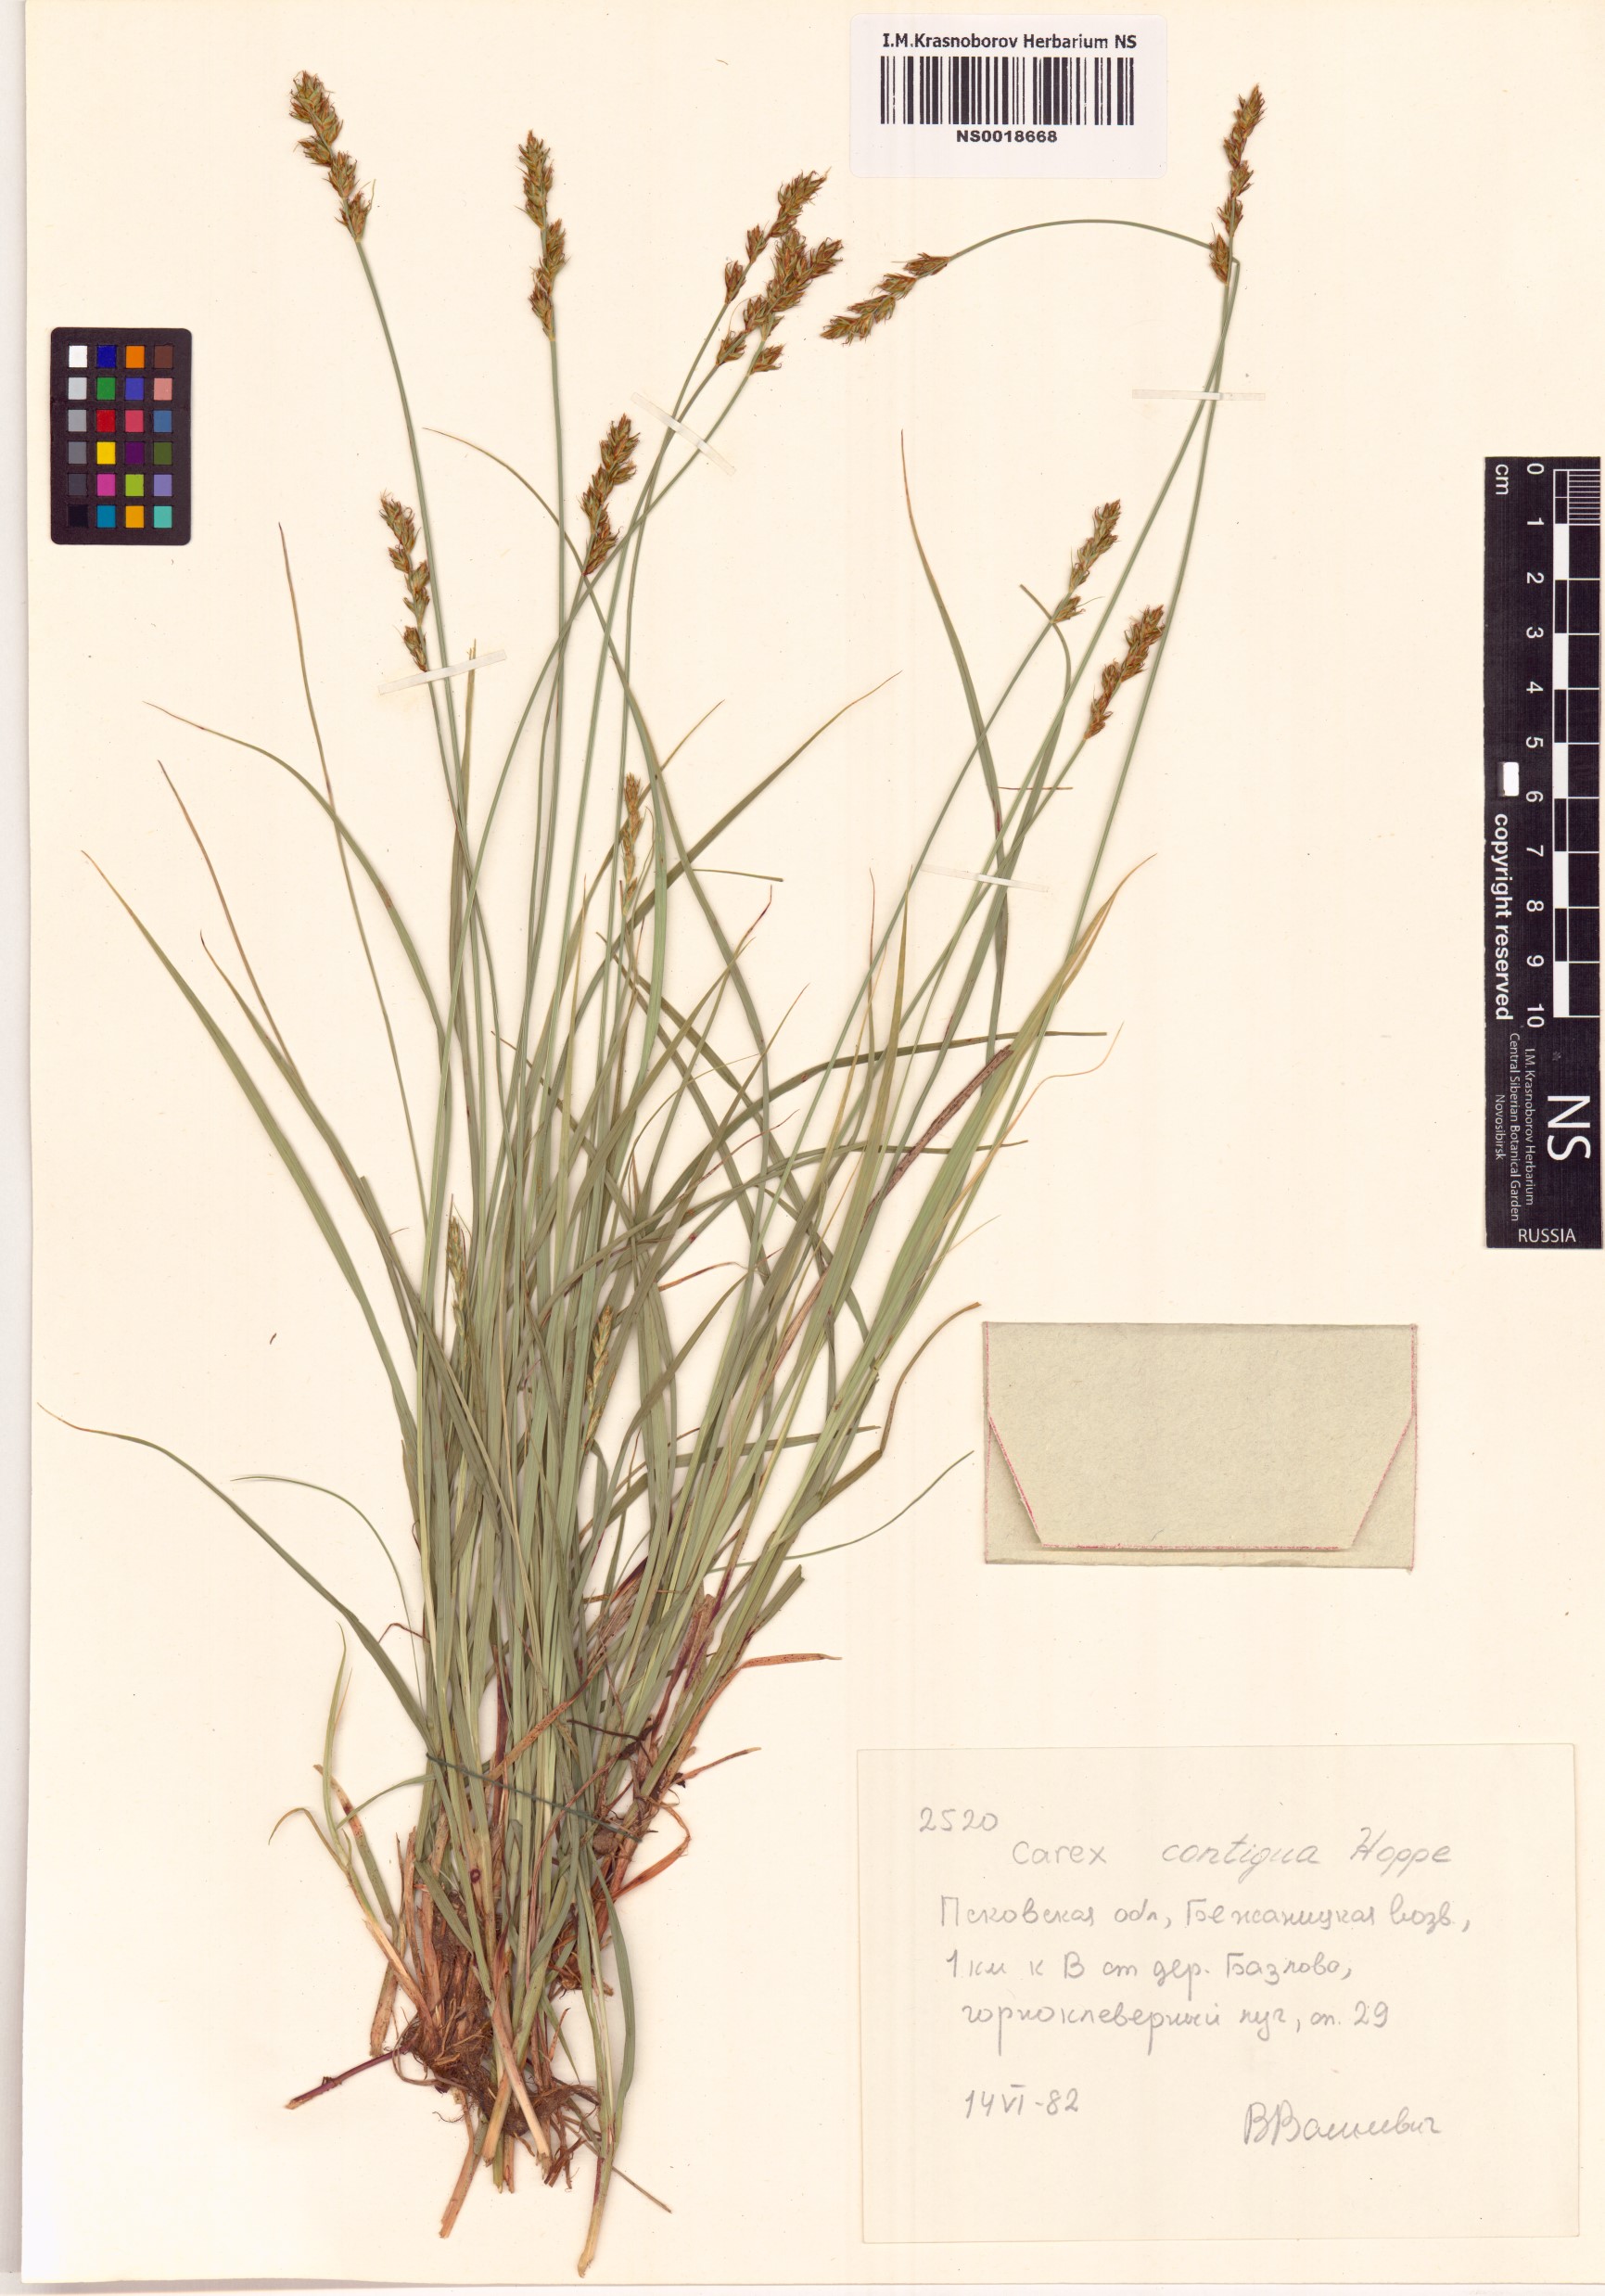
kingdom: Plantae
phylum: Tracheophyta
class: Liliopsida
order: Poales
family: Cyperaceae
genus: Carex
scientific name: Carex spicata
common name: Spiked sedge
